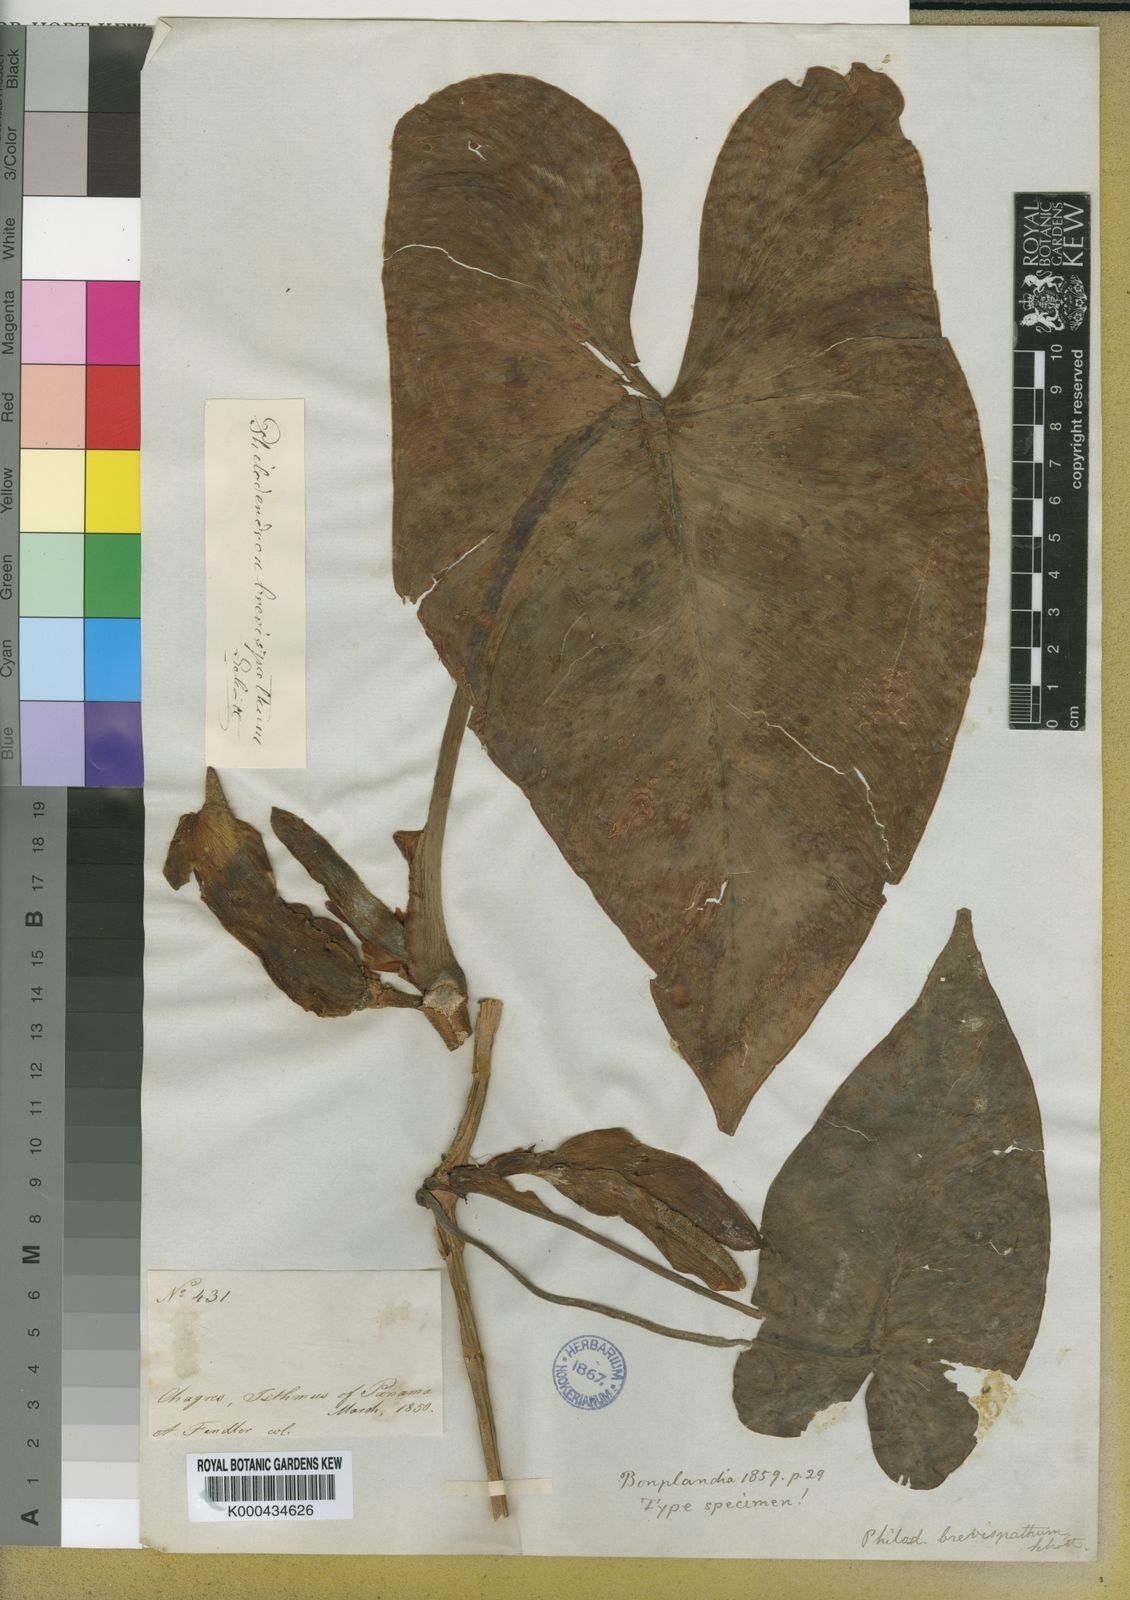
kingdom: Plantae
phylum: Tracheophyta
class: Liliopsida
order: Alismatales
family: Araceae
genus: Philodendron
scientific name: Philodendron brevispathum
